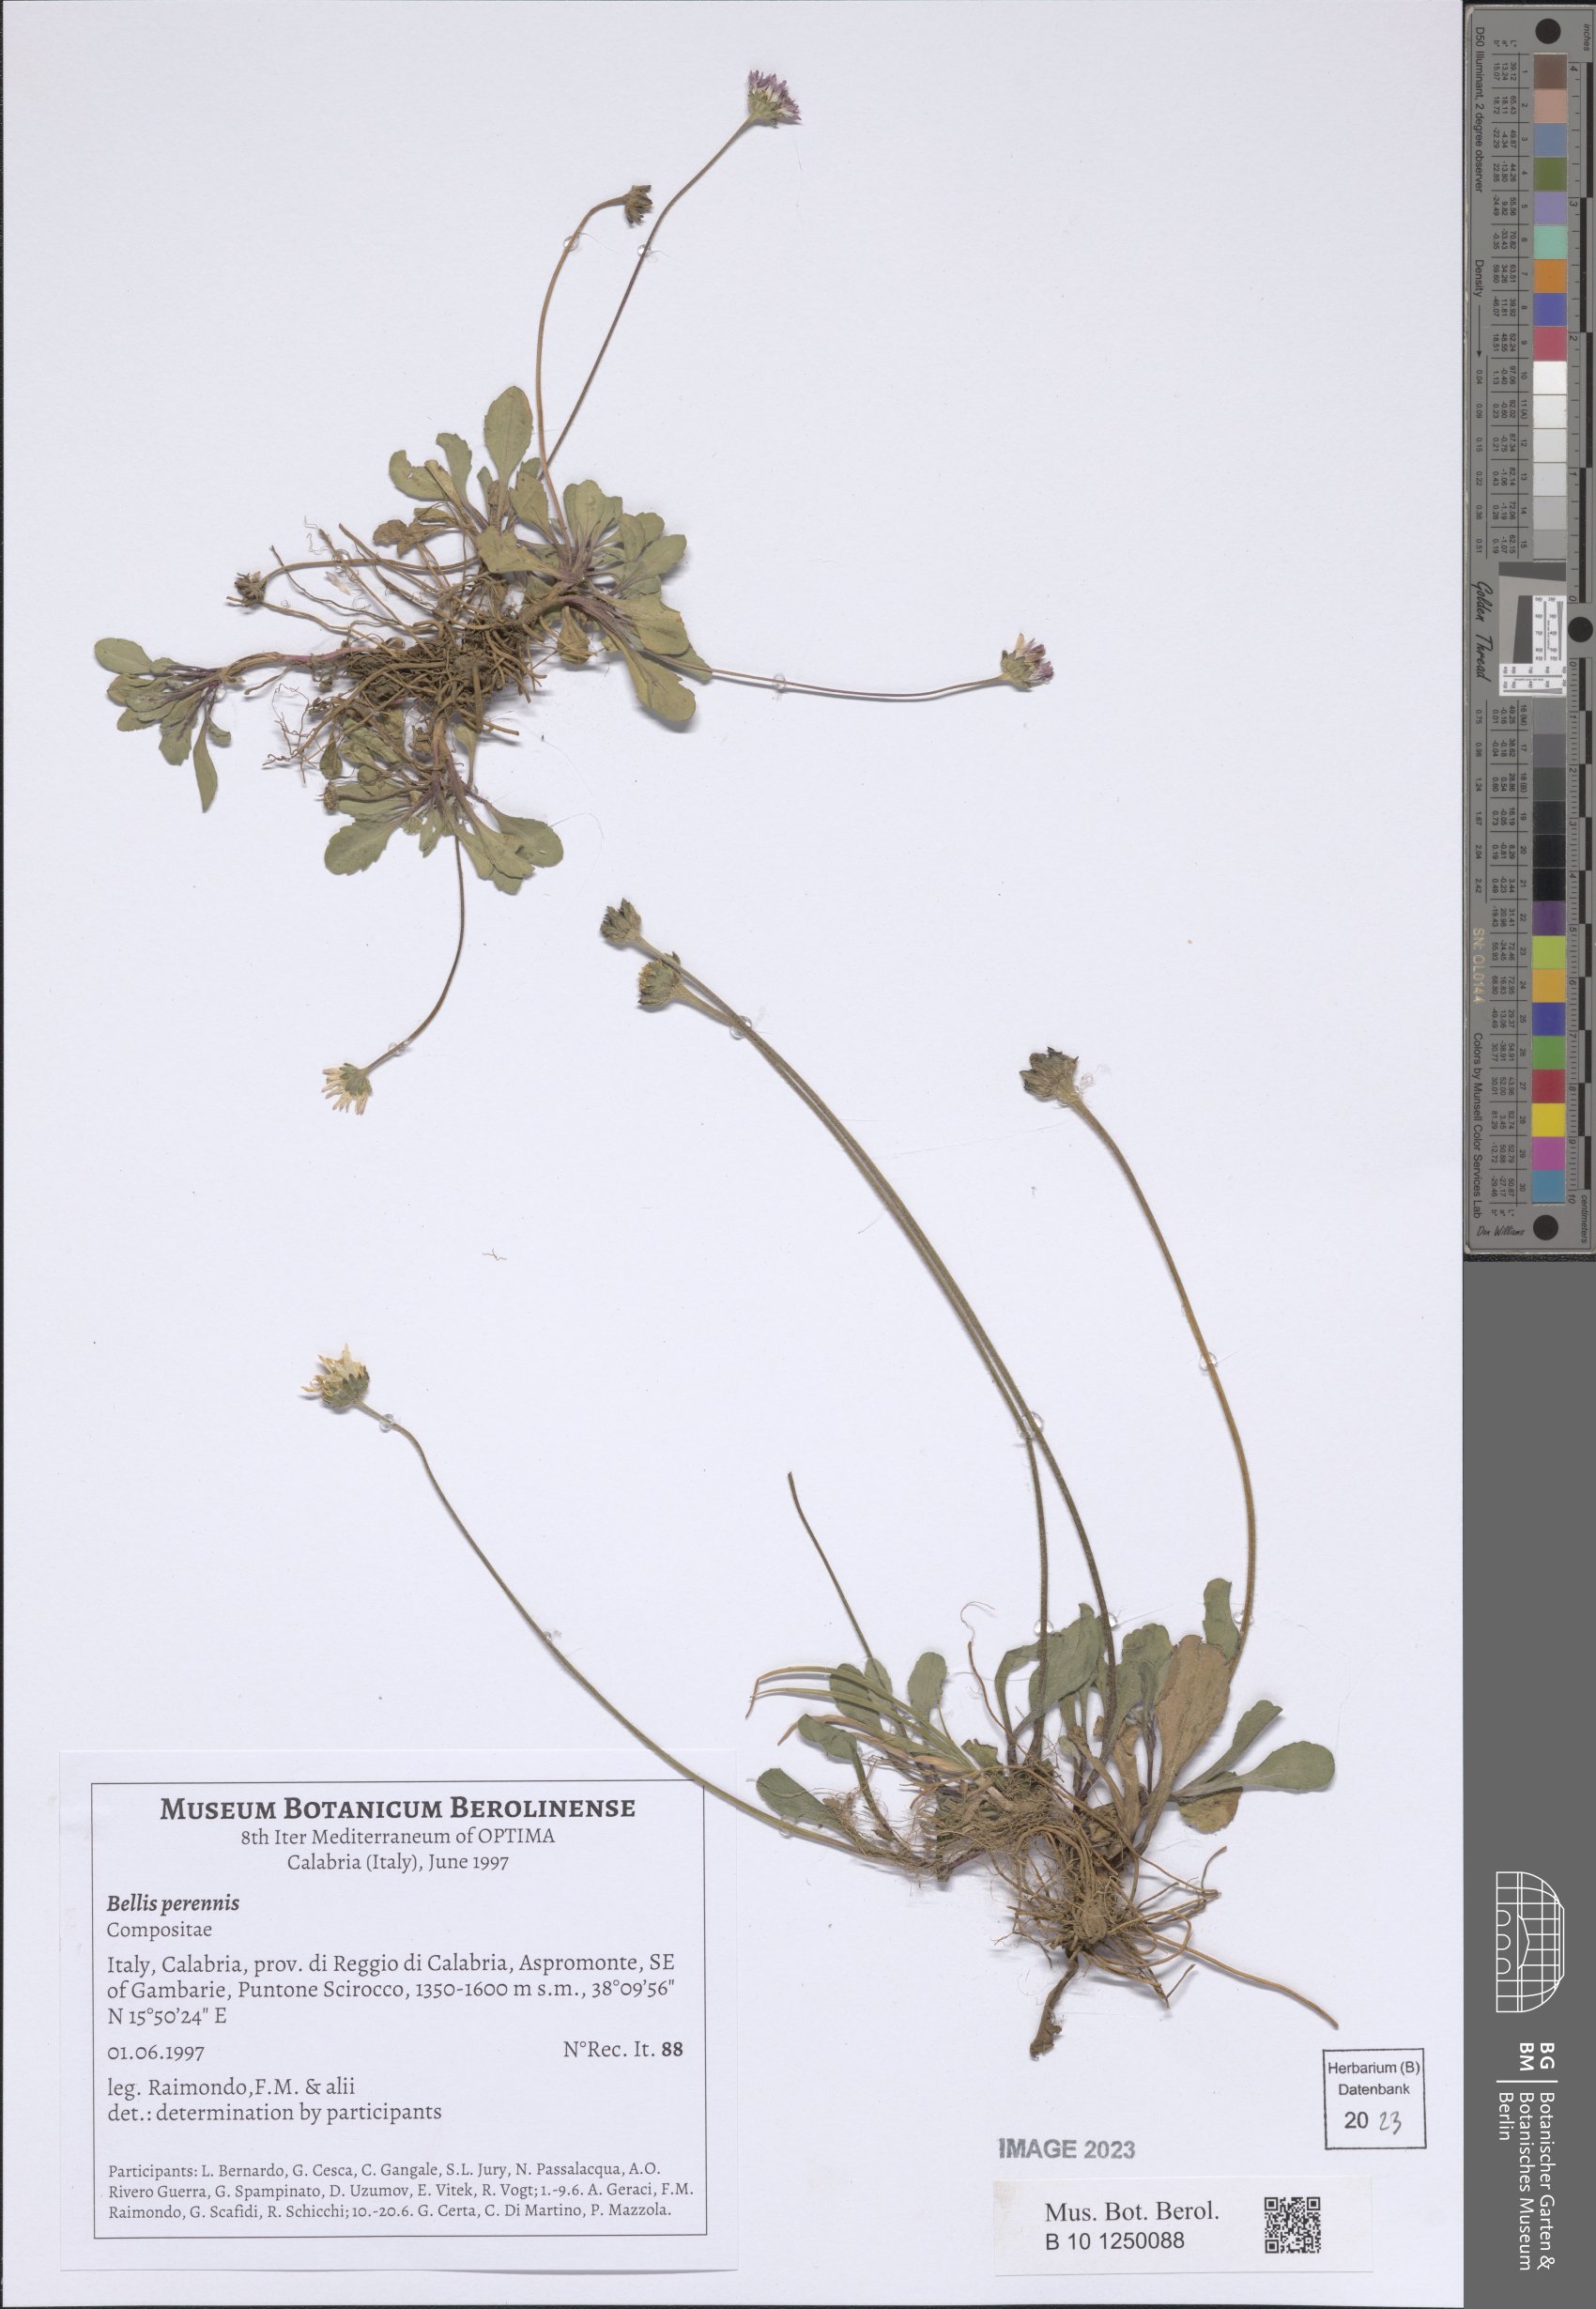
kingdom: Plantae
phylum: Tracheophyta
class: Magnoliopsida
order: Asterales
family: Asteraceae
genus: Bellis
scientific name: Bellis perennis
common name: Lawndaisy
